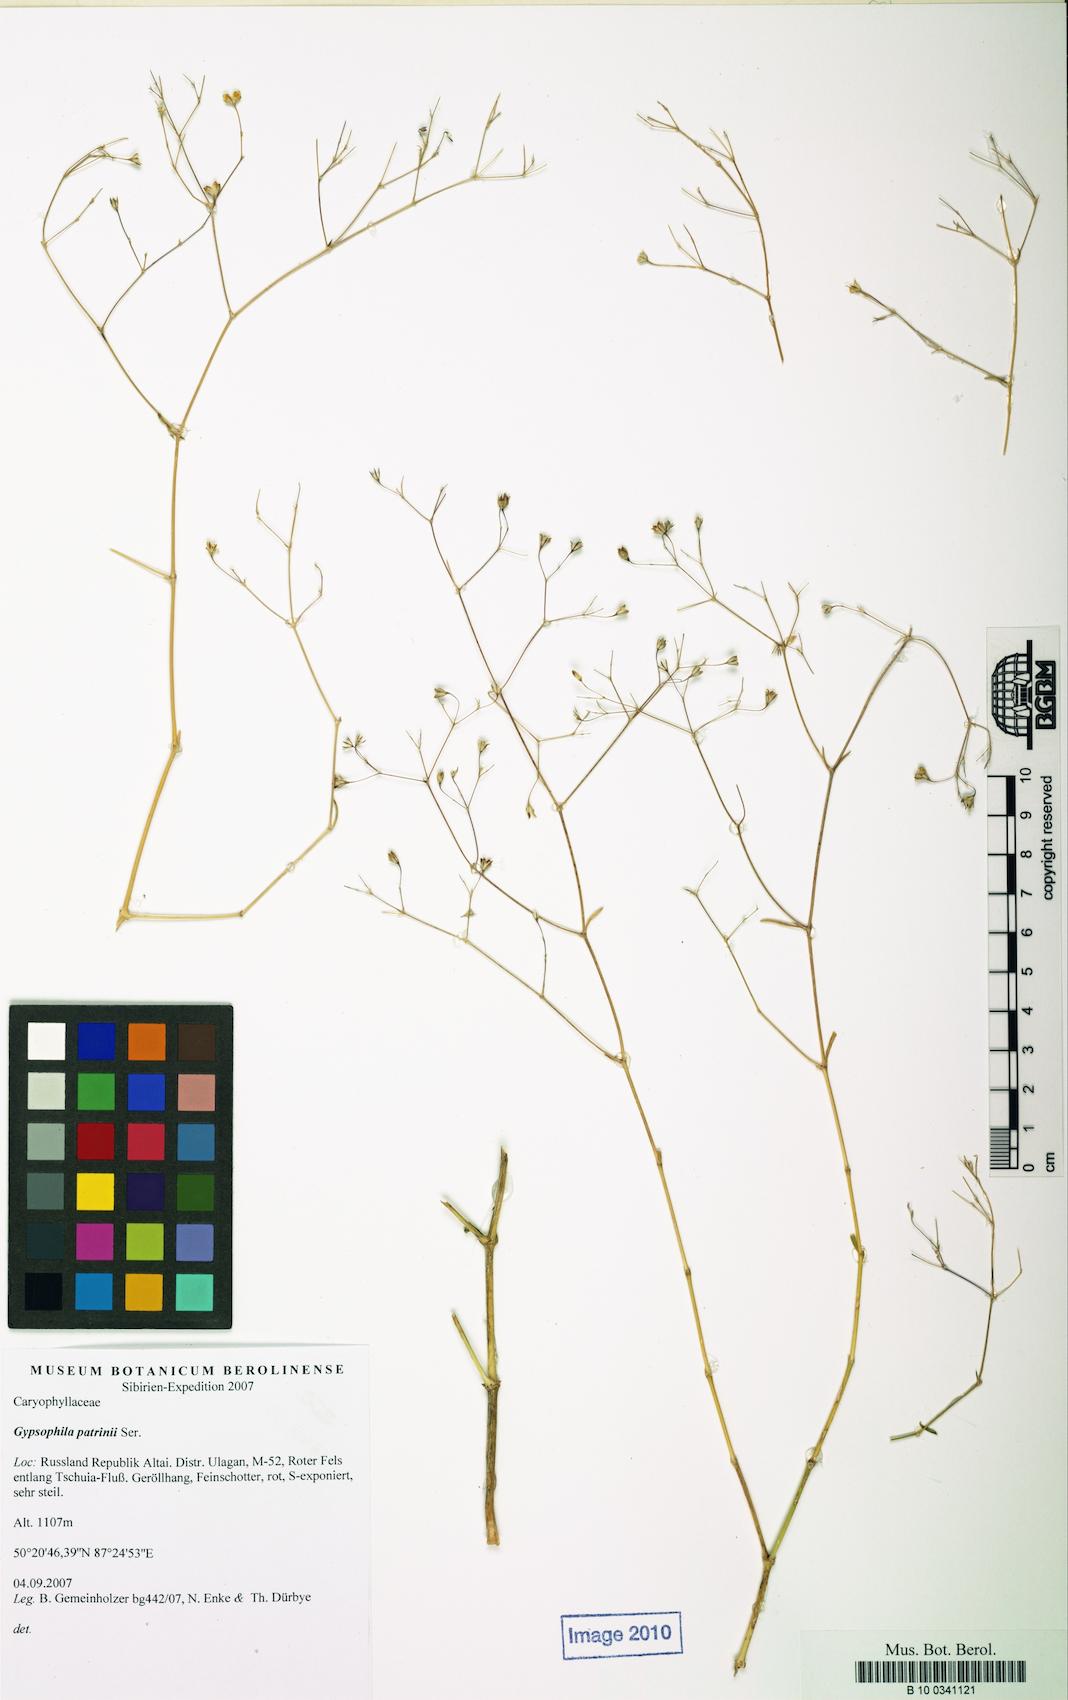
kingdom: Plantae
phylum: Tracheophyta
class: Magnoliopsida
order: Caryophyllales
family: Caryophyllaceae
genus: Gypsophila
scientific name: Gypsophila patrinii
